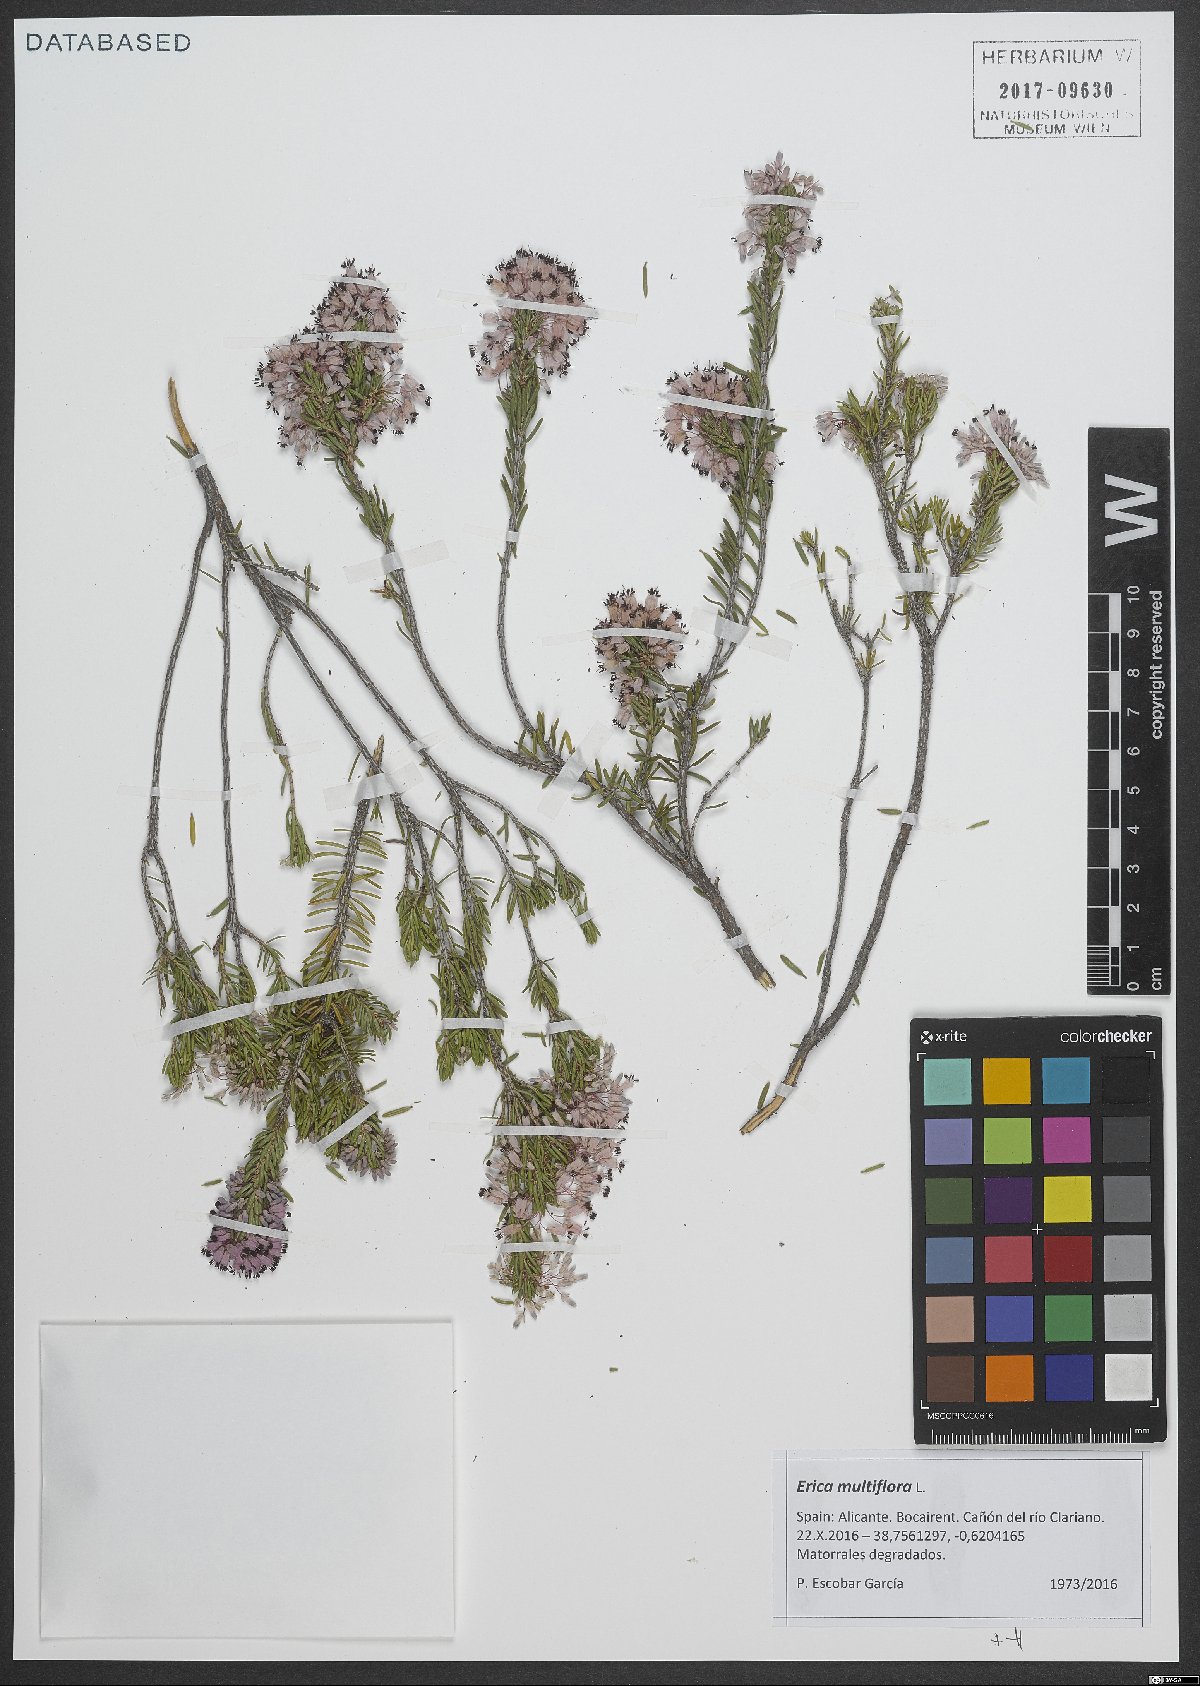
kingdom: Plantae
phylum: Tracheophyta
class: Magnoliopsida
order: Ericales
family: Ericaceae
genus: Erica
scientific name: Erica multiflora
